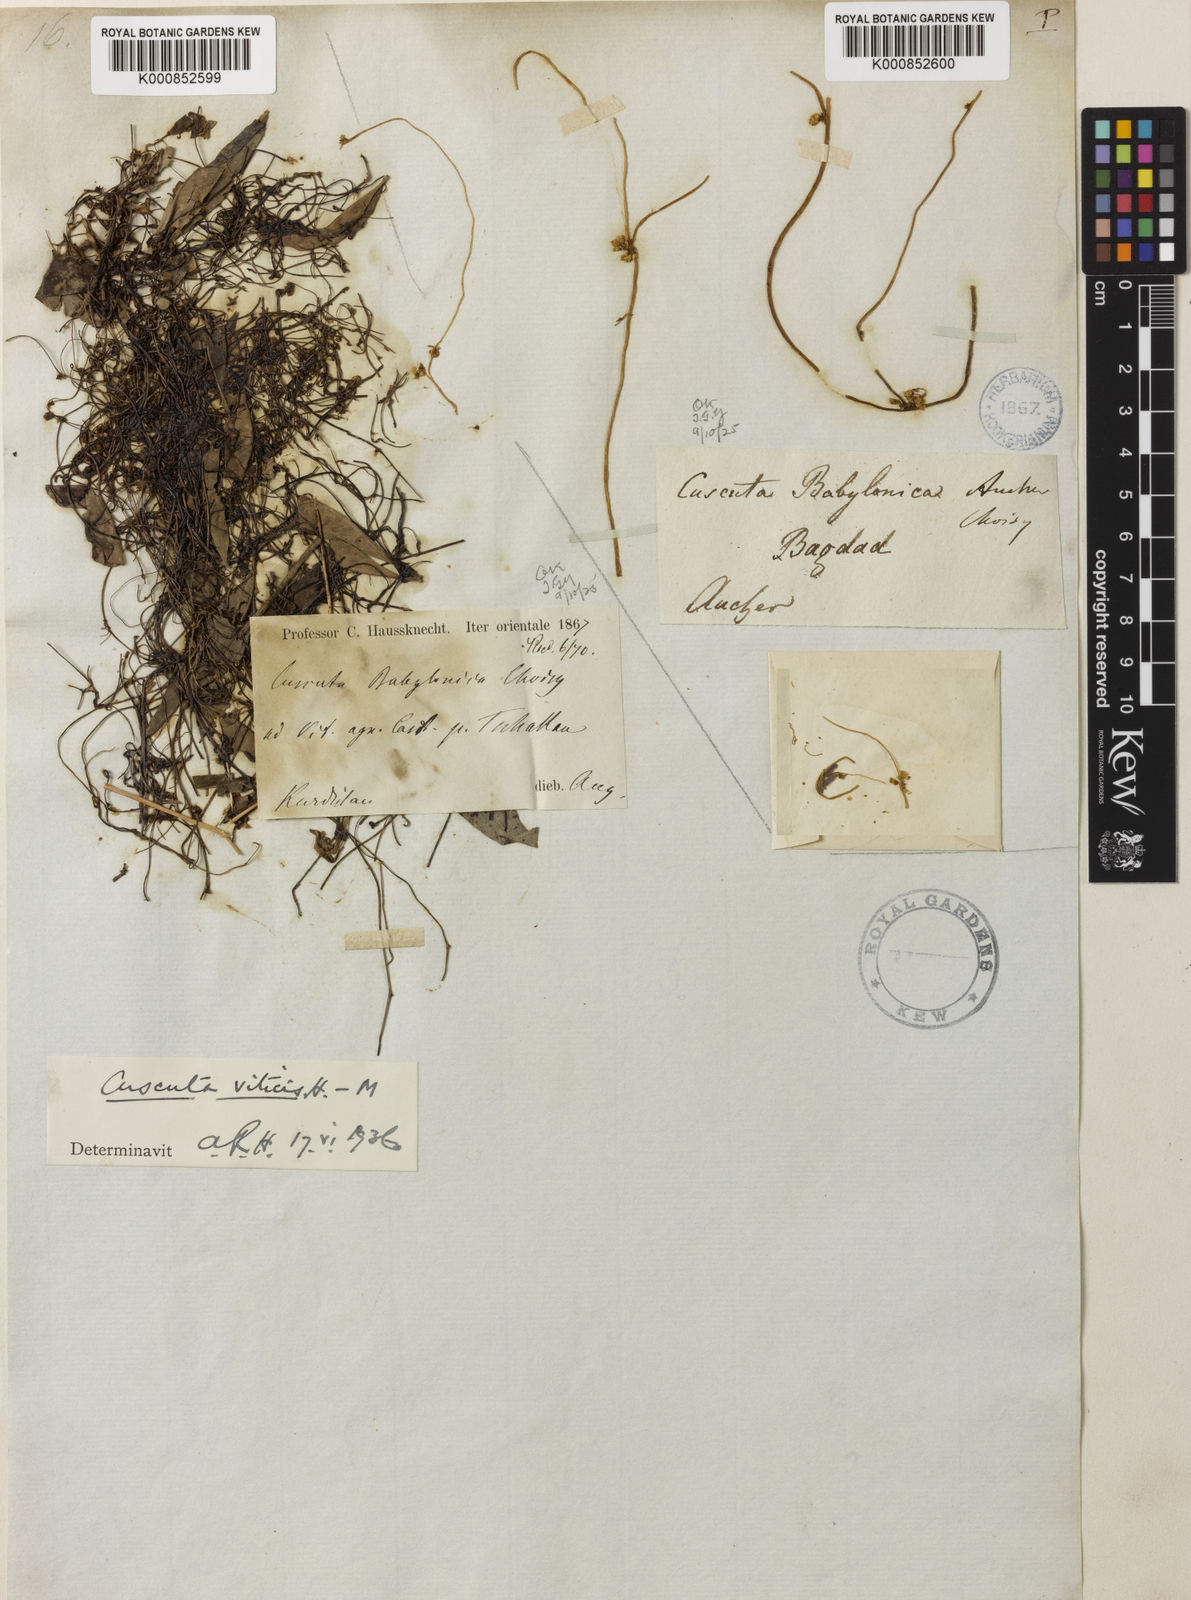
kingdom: Plantae
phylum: Tracheophyta
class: Magnoliopsida
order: Solanales
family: Convolvulaceae
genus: Cuscuta
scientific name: Cuscuta babylonica
